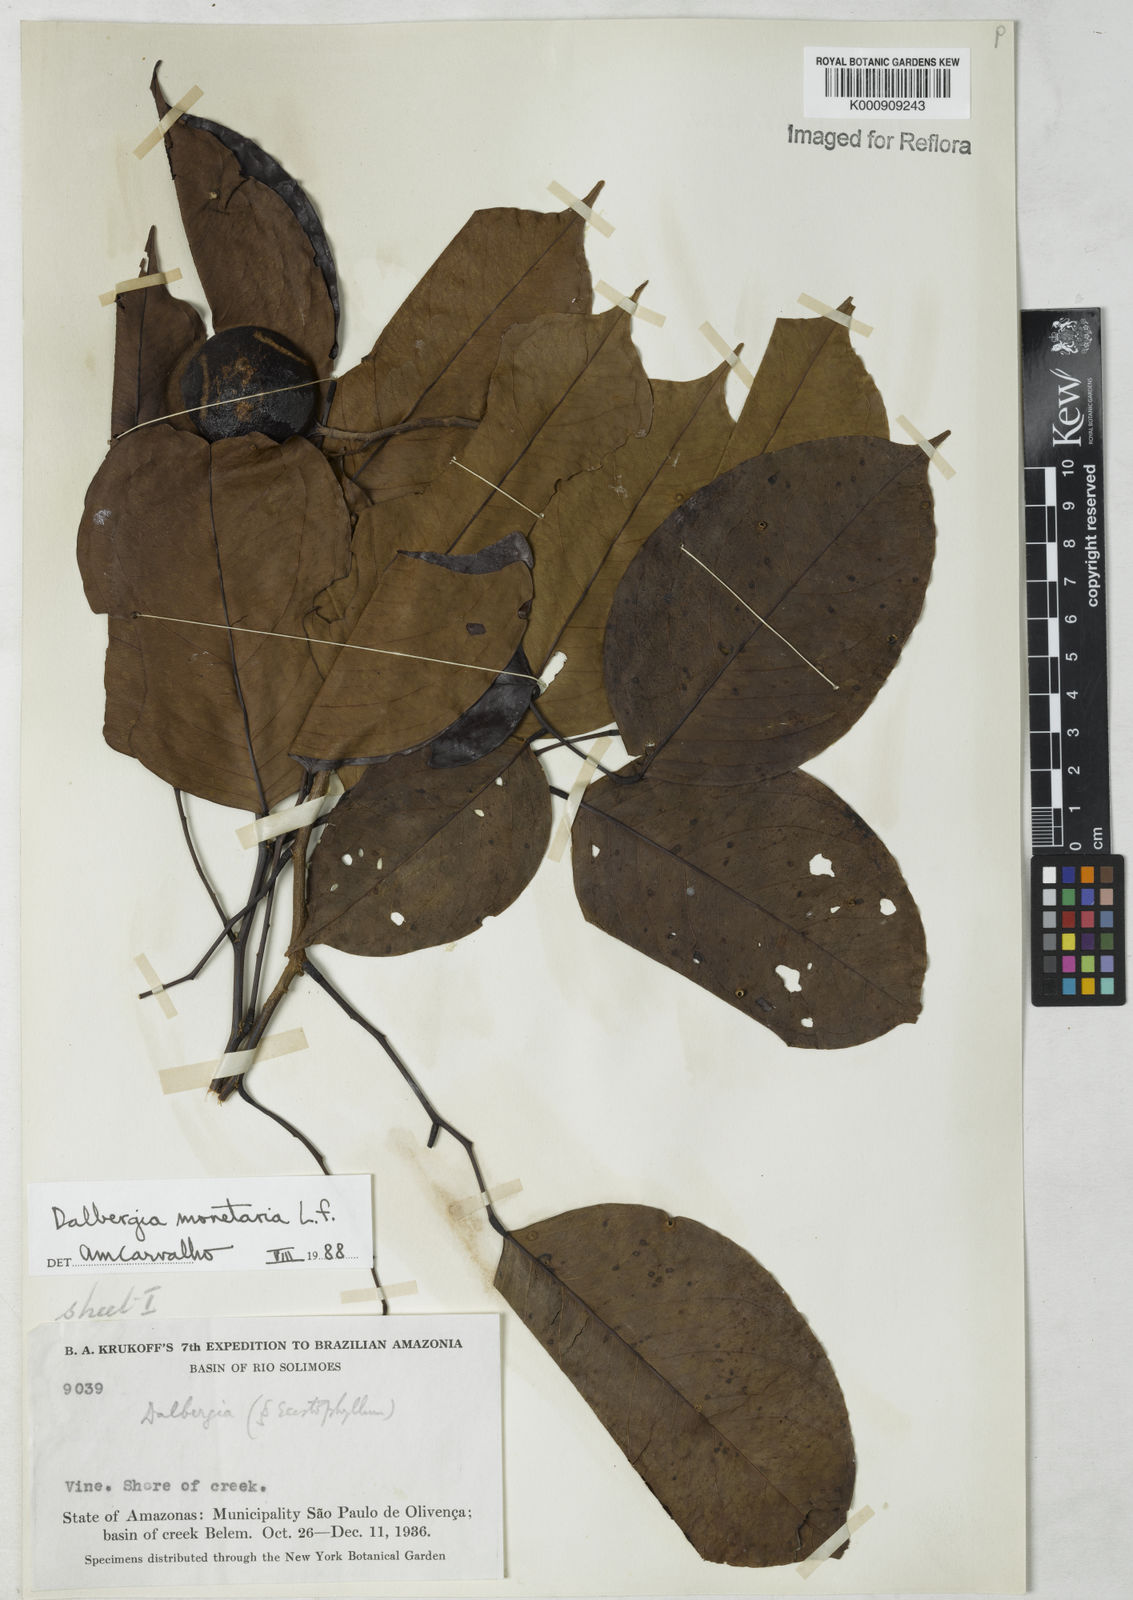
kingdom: Plantae
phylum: Tracheophyta
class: Magnoliopsida
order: Fabales
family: Fabaceae
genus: Dalbergia
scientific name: Dalbergia ovalis
